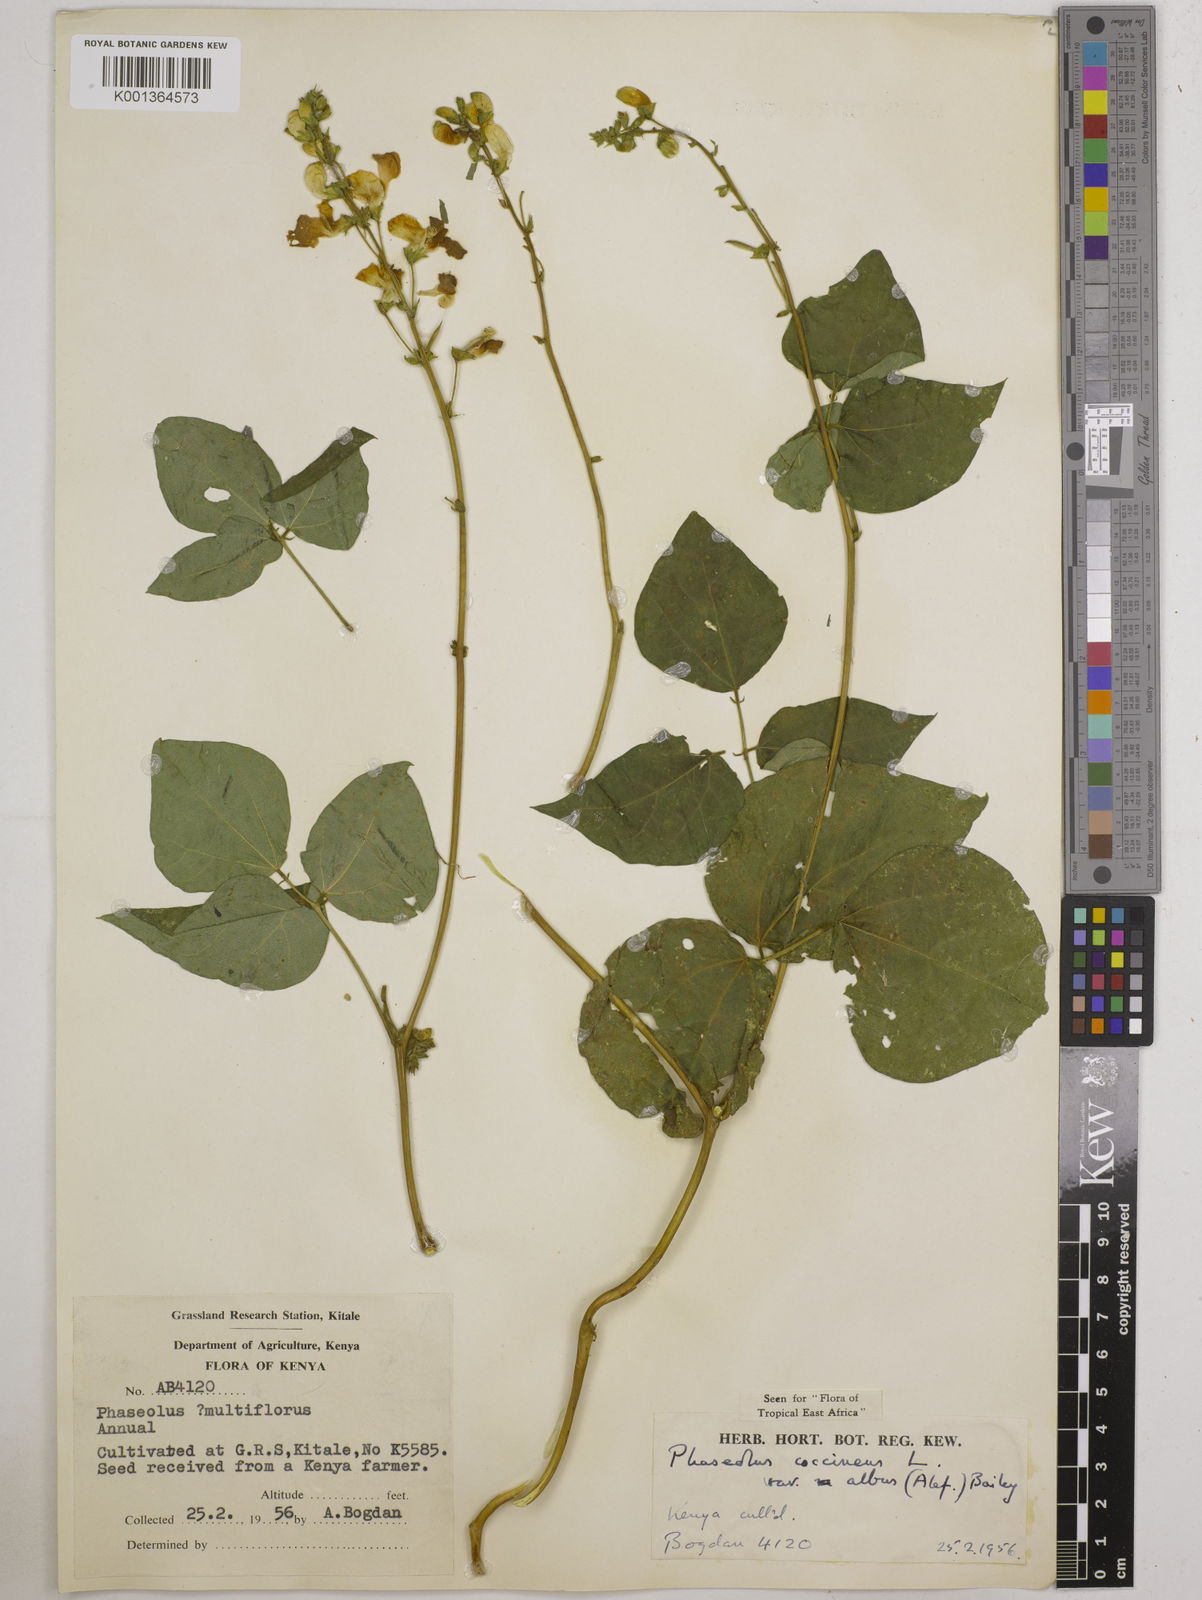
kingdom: Plantae
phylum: Tracheophyta
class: Magnoliopsida
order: Fabales
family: Fabaceae
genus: Phaseolus
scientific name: Phaseolus
